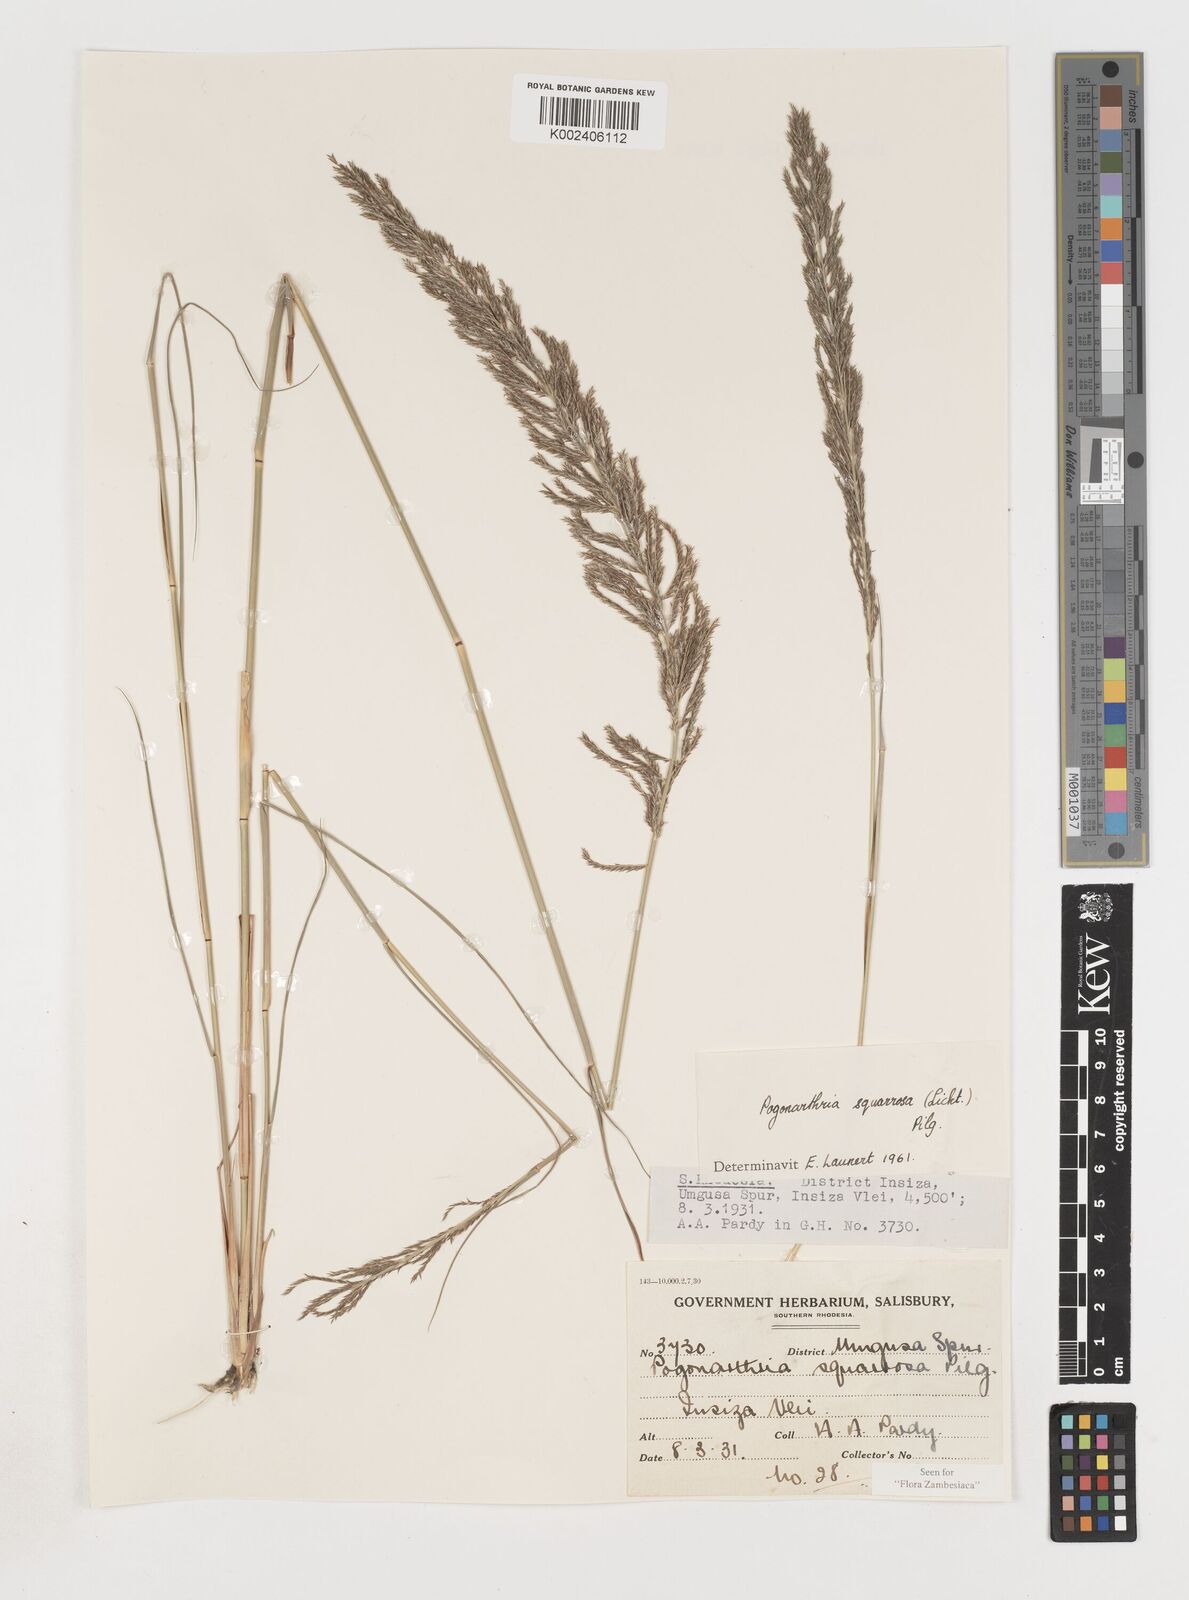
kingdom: Plantae
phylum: Tracheophyta
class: Liliopsida
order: Poales
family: Poaceae
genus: Pogonarthria
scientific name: Pogonarthria squarrosa
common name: Grass
